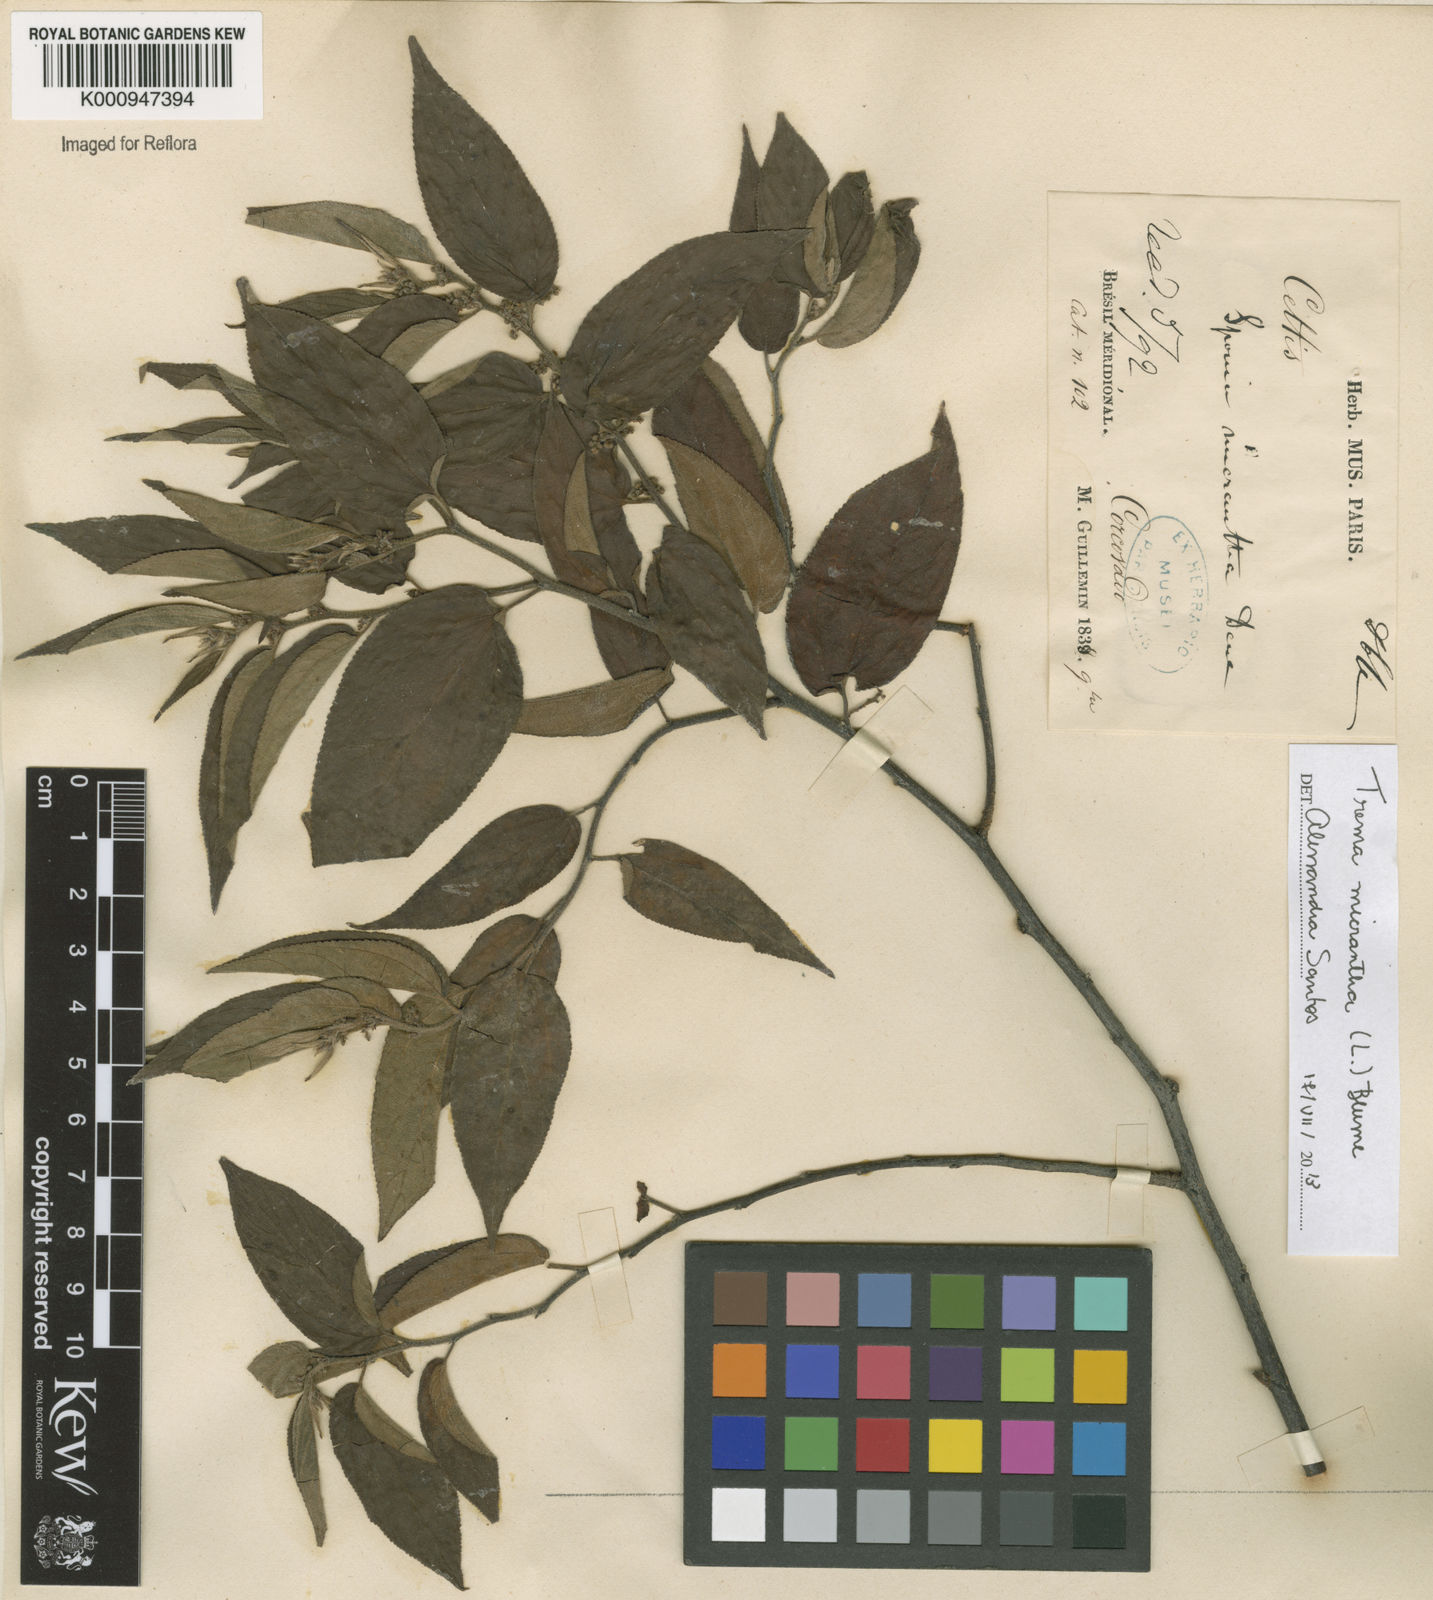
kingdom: Plantae
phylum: Tracheophyta
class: Magnoliopsida
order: Rosales
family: Cannabaceae
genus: Trema
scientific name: Trema micranthum
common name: Jamaican nettletree
